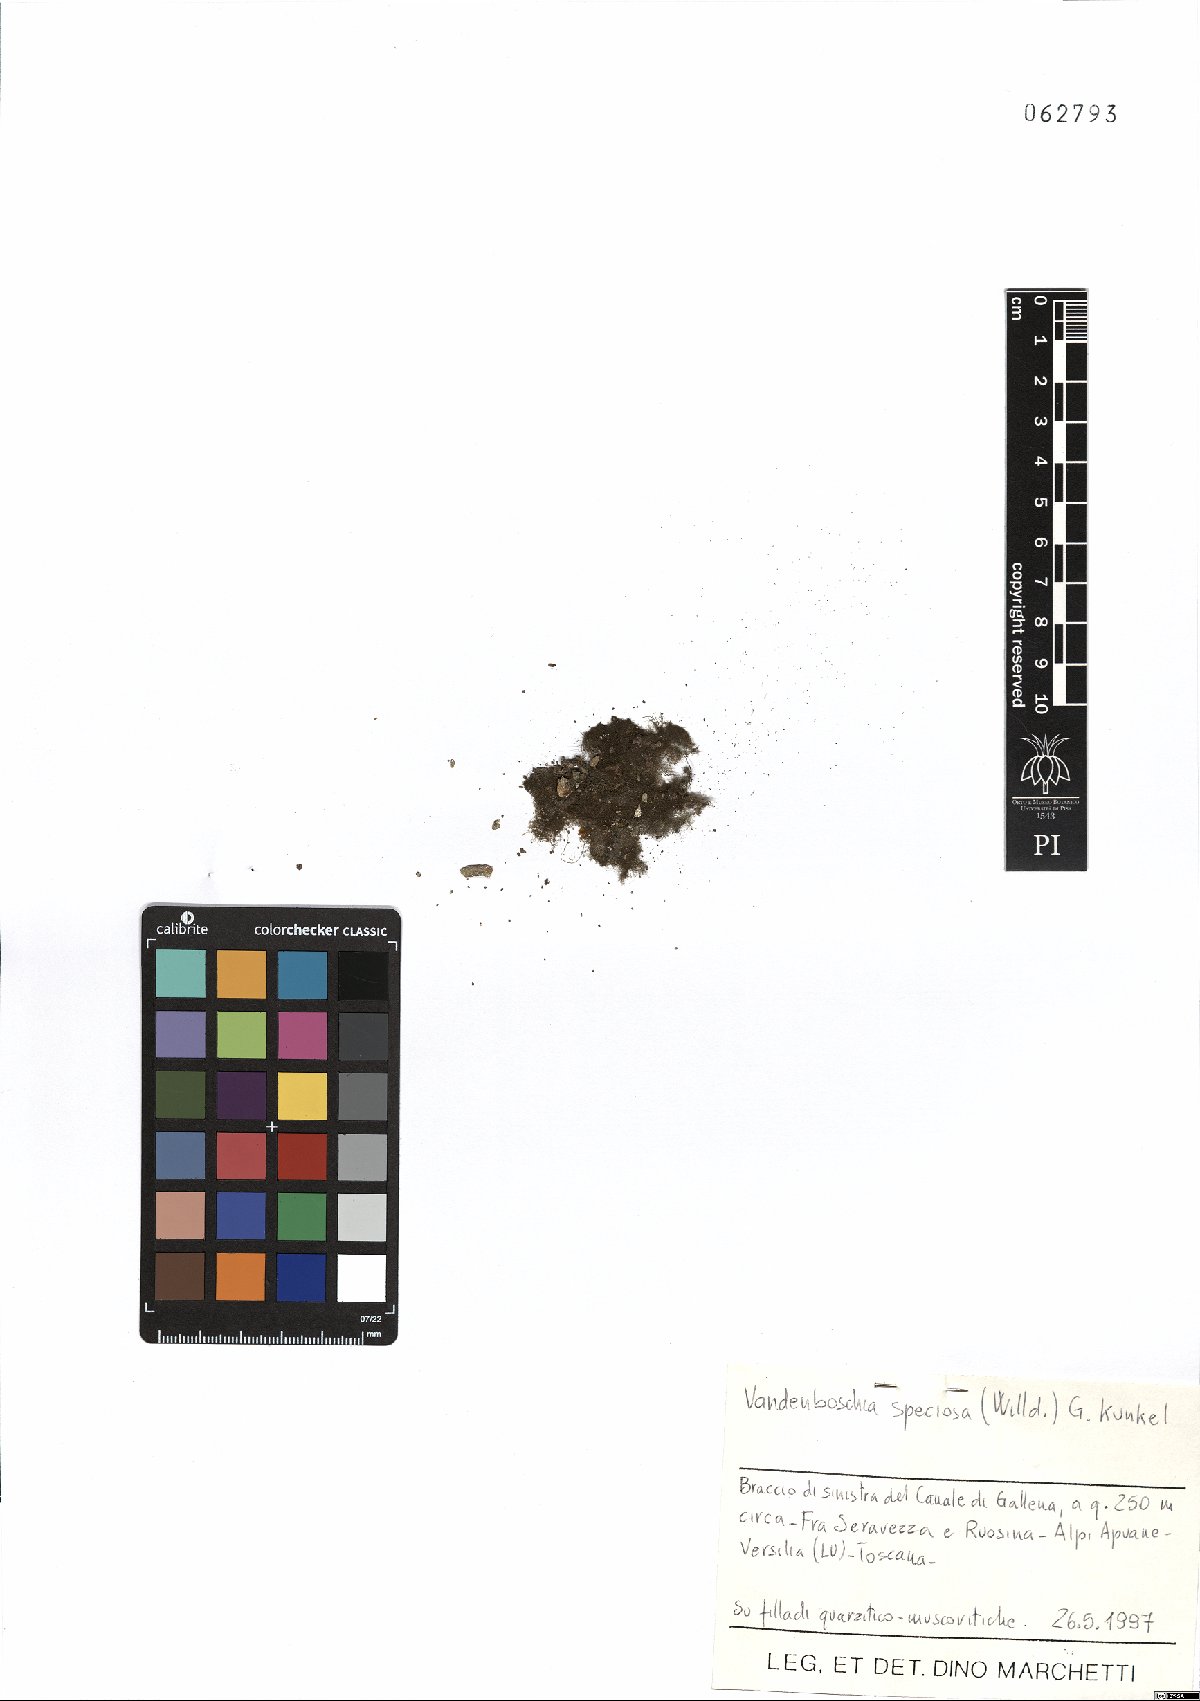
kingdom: Plantae
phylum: Tracheophyta
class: Polypodiopsida
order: Hymenophyllales
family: Hymenophyllaceae
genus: Vandenboschia
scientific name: Vandenboschia speciosa
